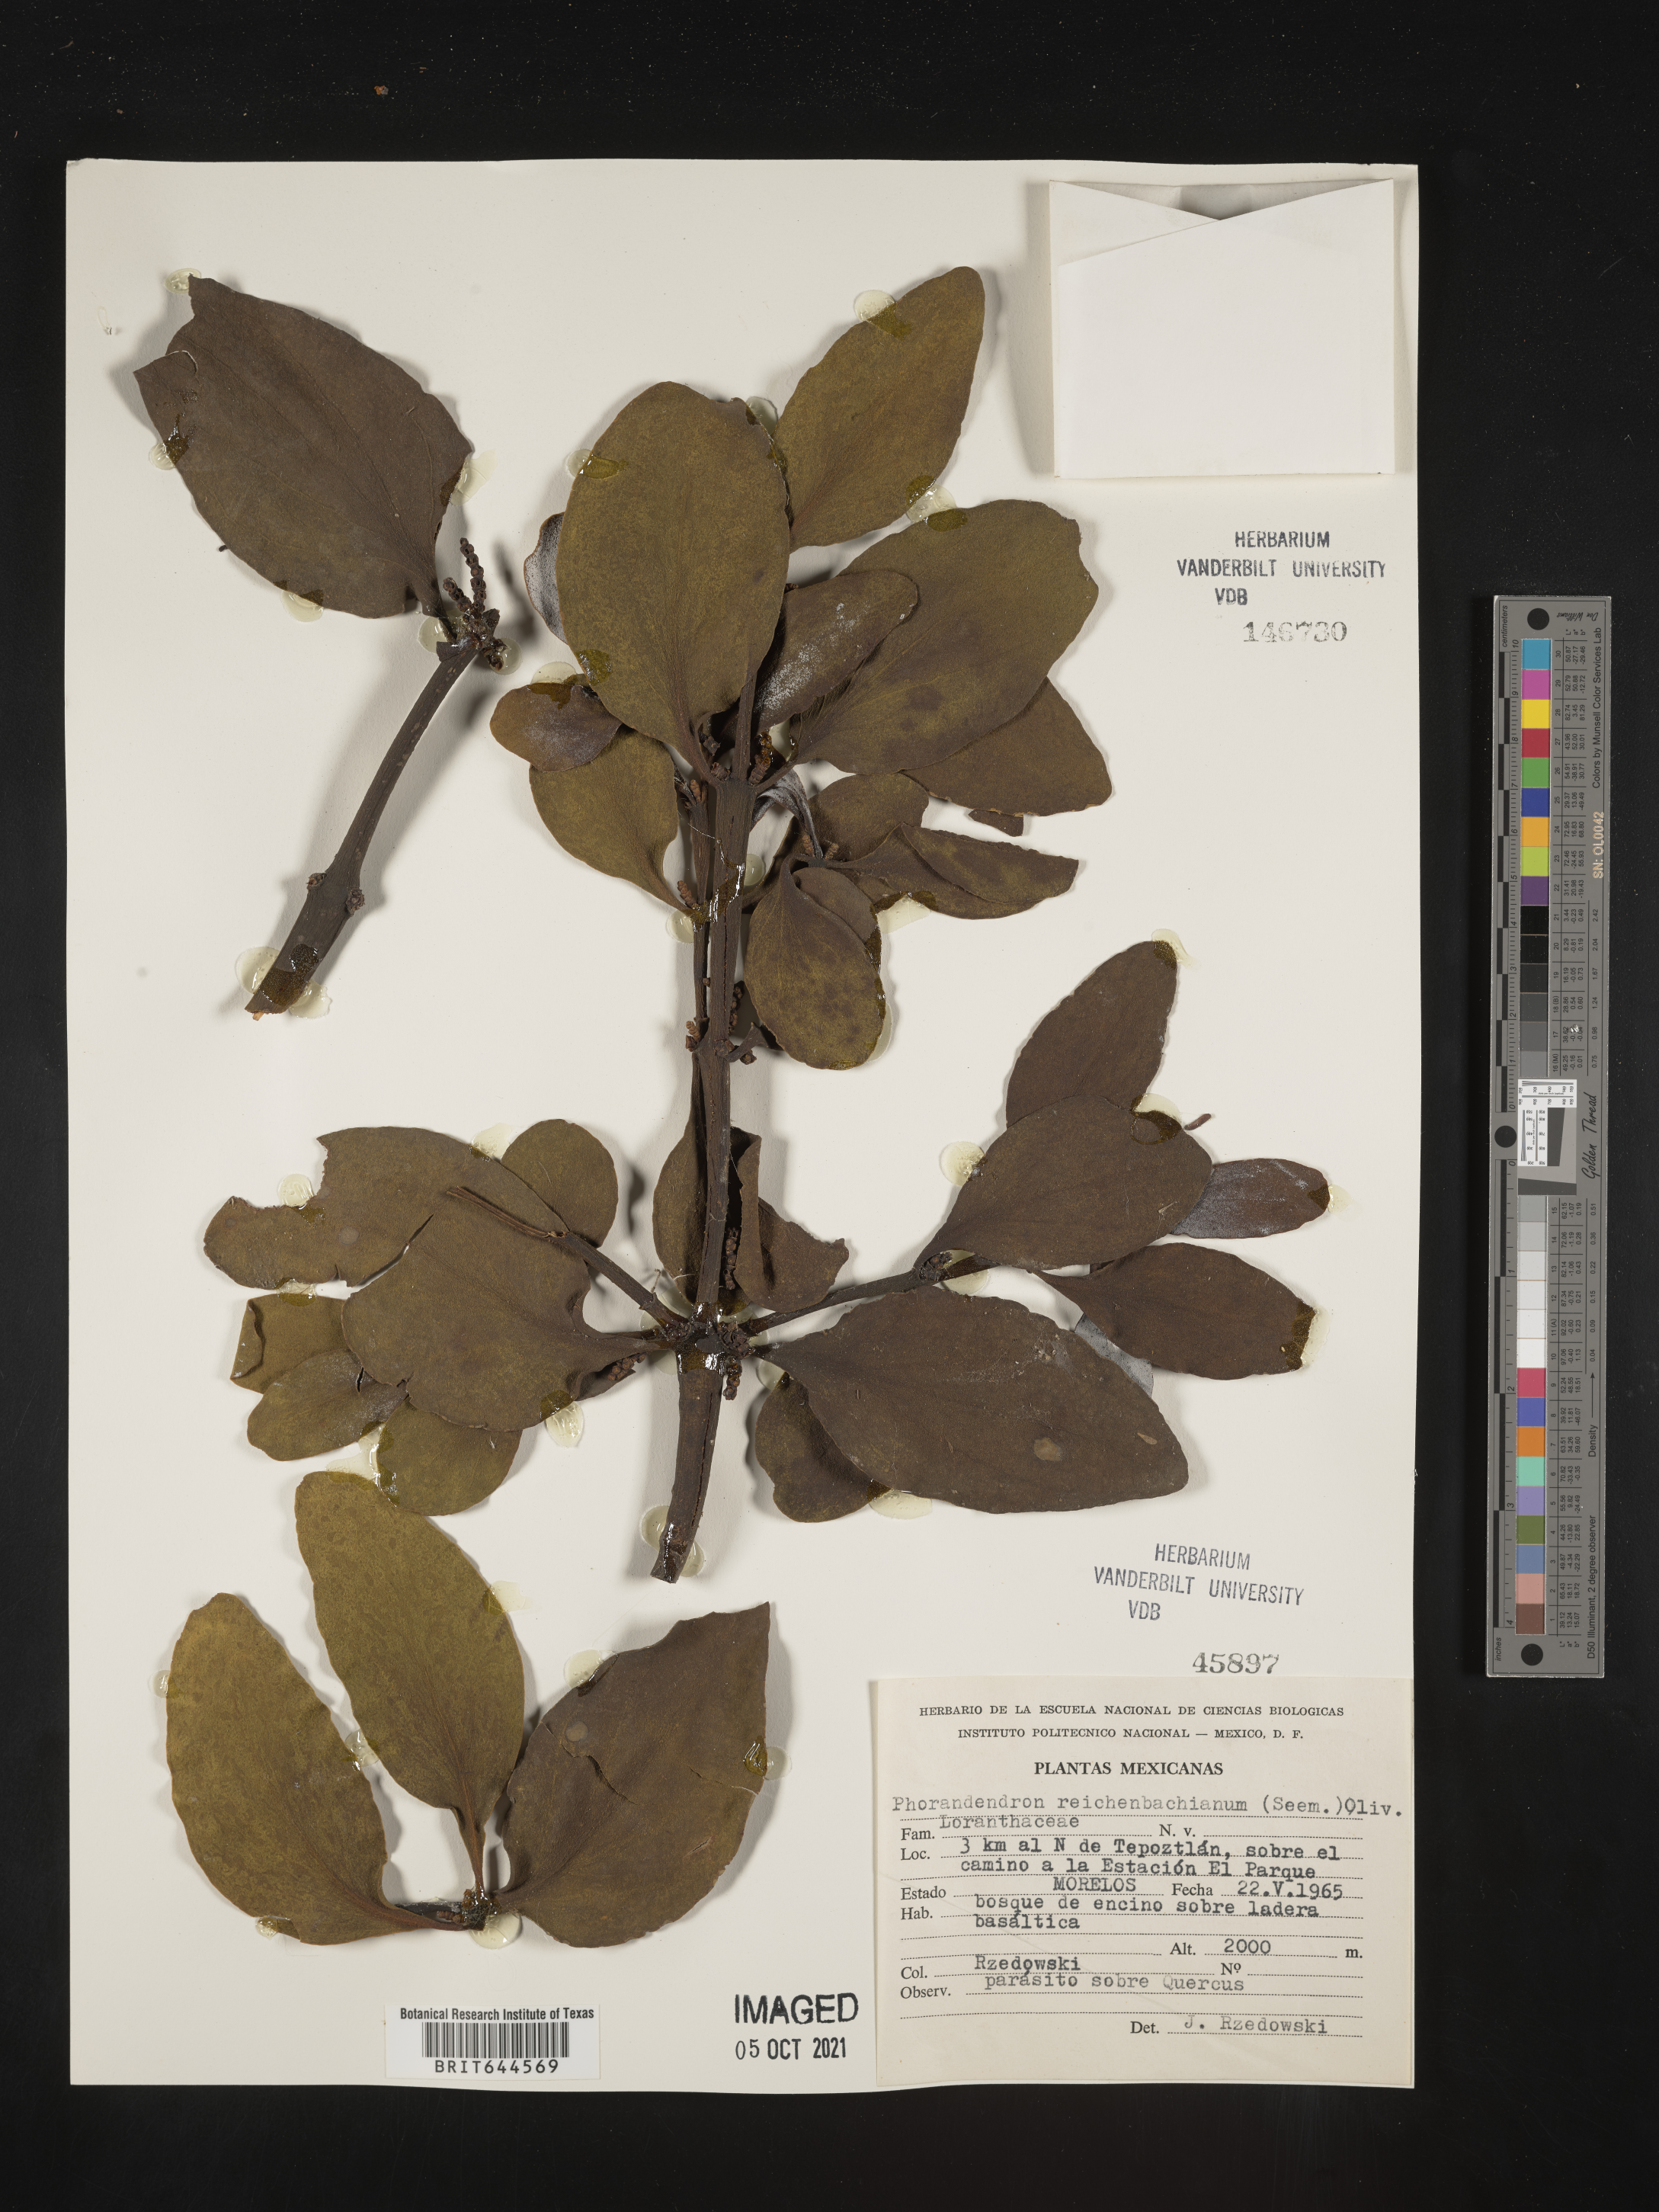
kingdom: Plantae
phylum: Tracheophyta
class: Magnoliopsida
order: Santalales
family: Viscaceae
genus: Phoradendron
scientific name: Phoradendron
